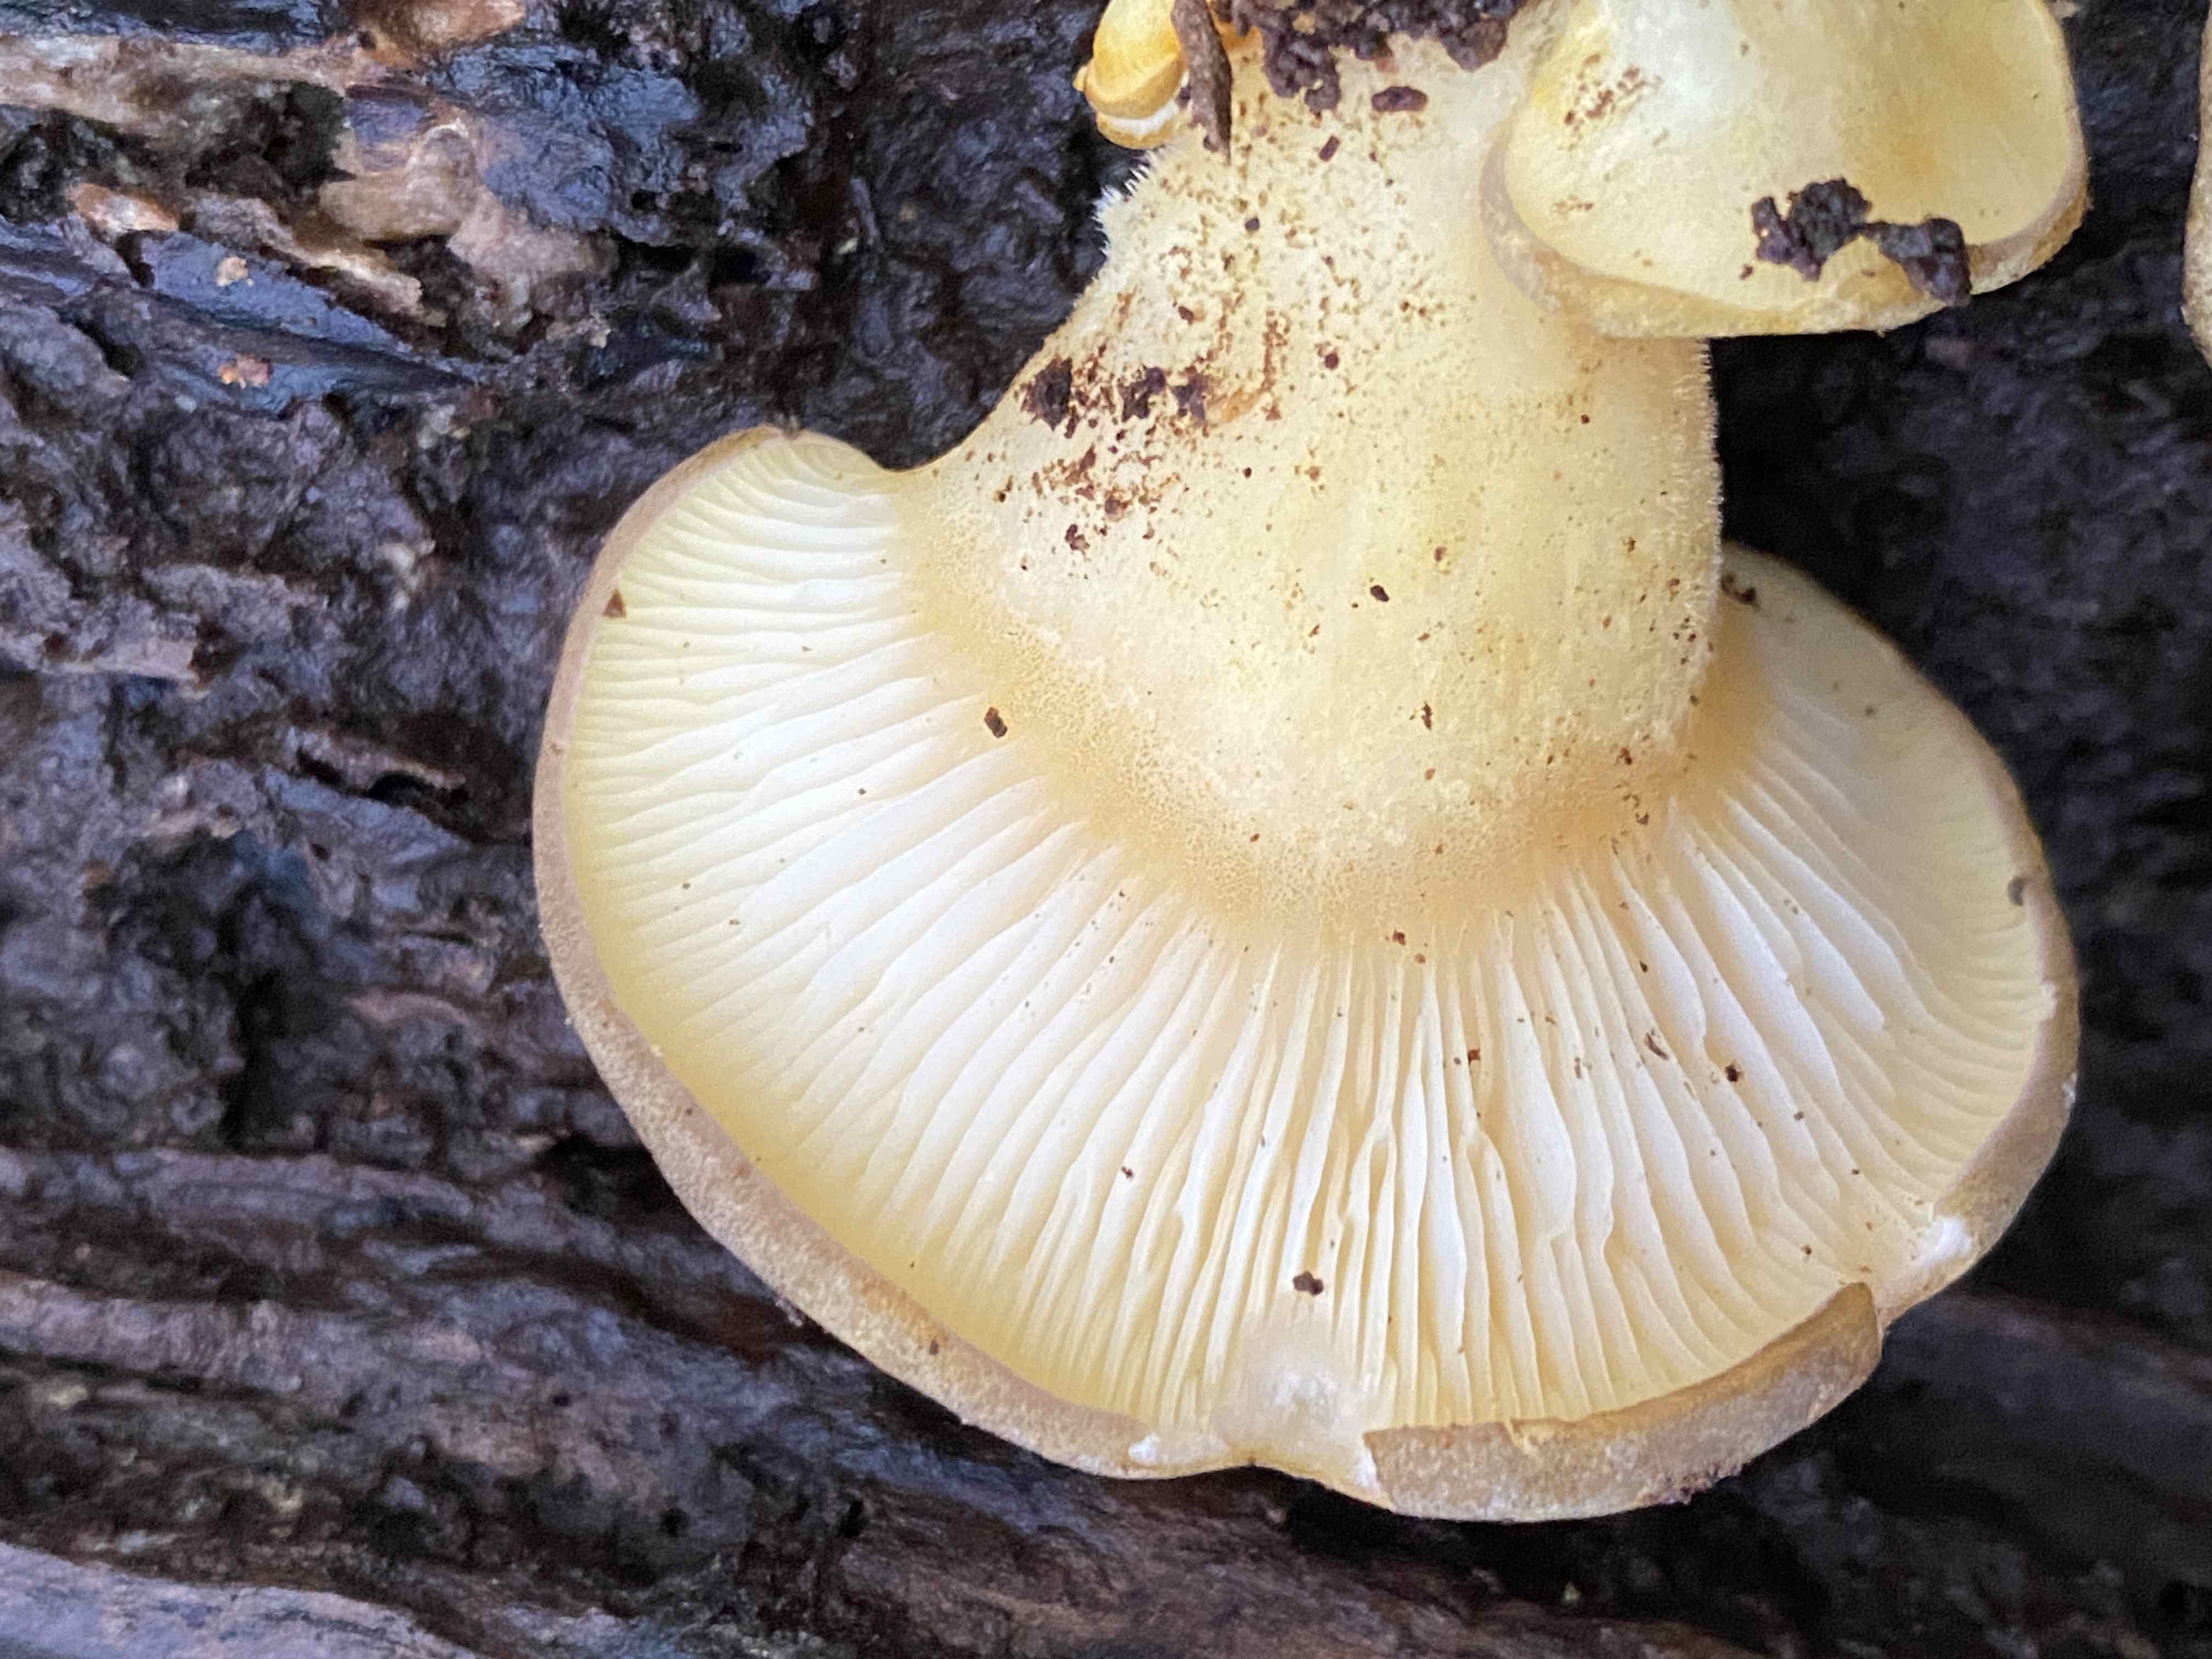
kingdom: Fungi
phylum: Basidiomycota
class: Agaricomycetes
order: Agaricales
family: Sarcomyxaceae
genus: Sarcomyxa
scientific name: Sarcomyxa serotina
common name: gummihat
